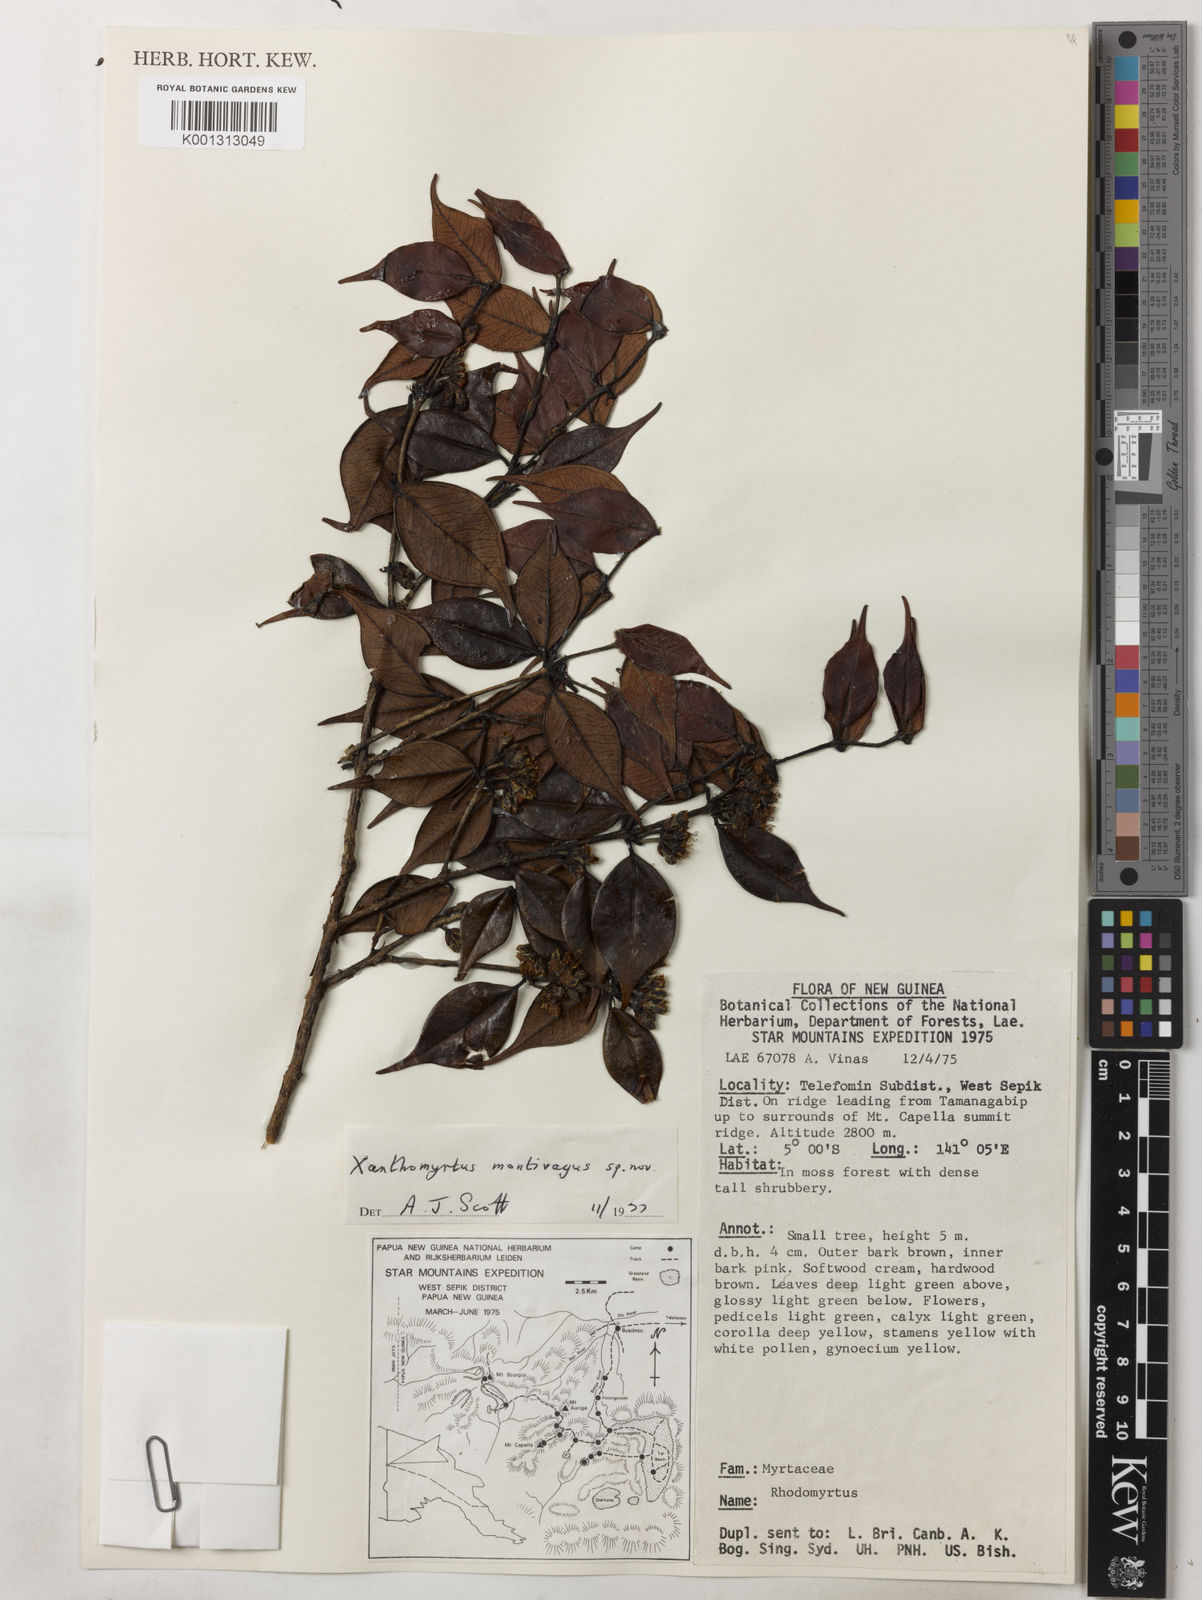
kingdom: Plantae
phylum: Tracheophyta
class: Magnoliopsida
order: Myrtales
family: Myrtaceae
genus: Xanthomyrtus
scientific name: Xanthomyrtus montivaga
